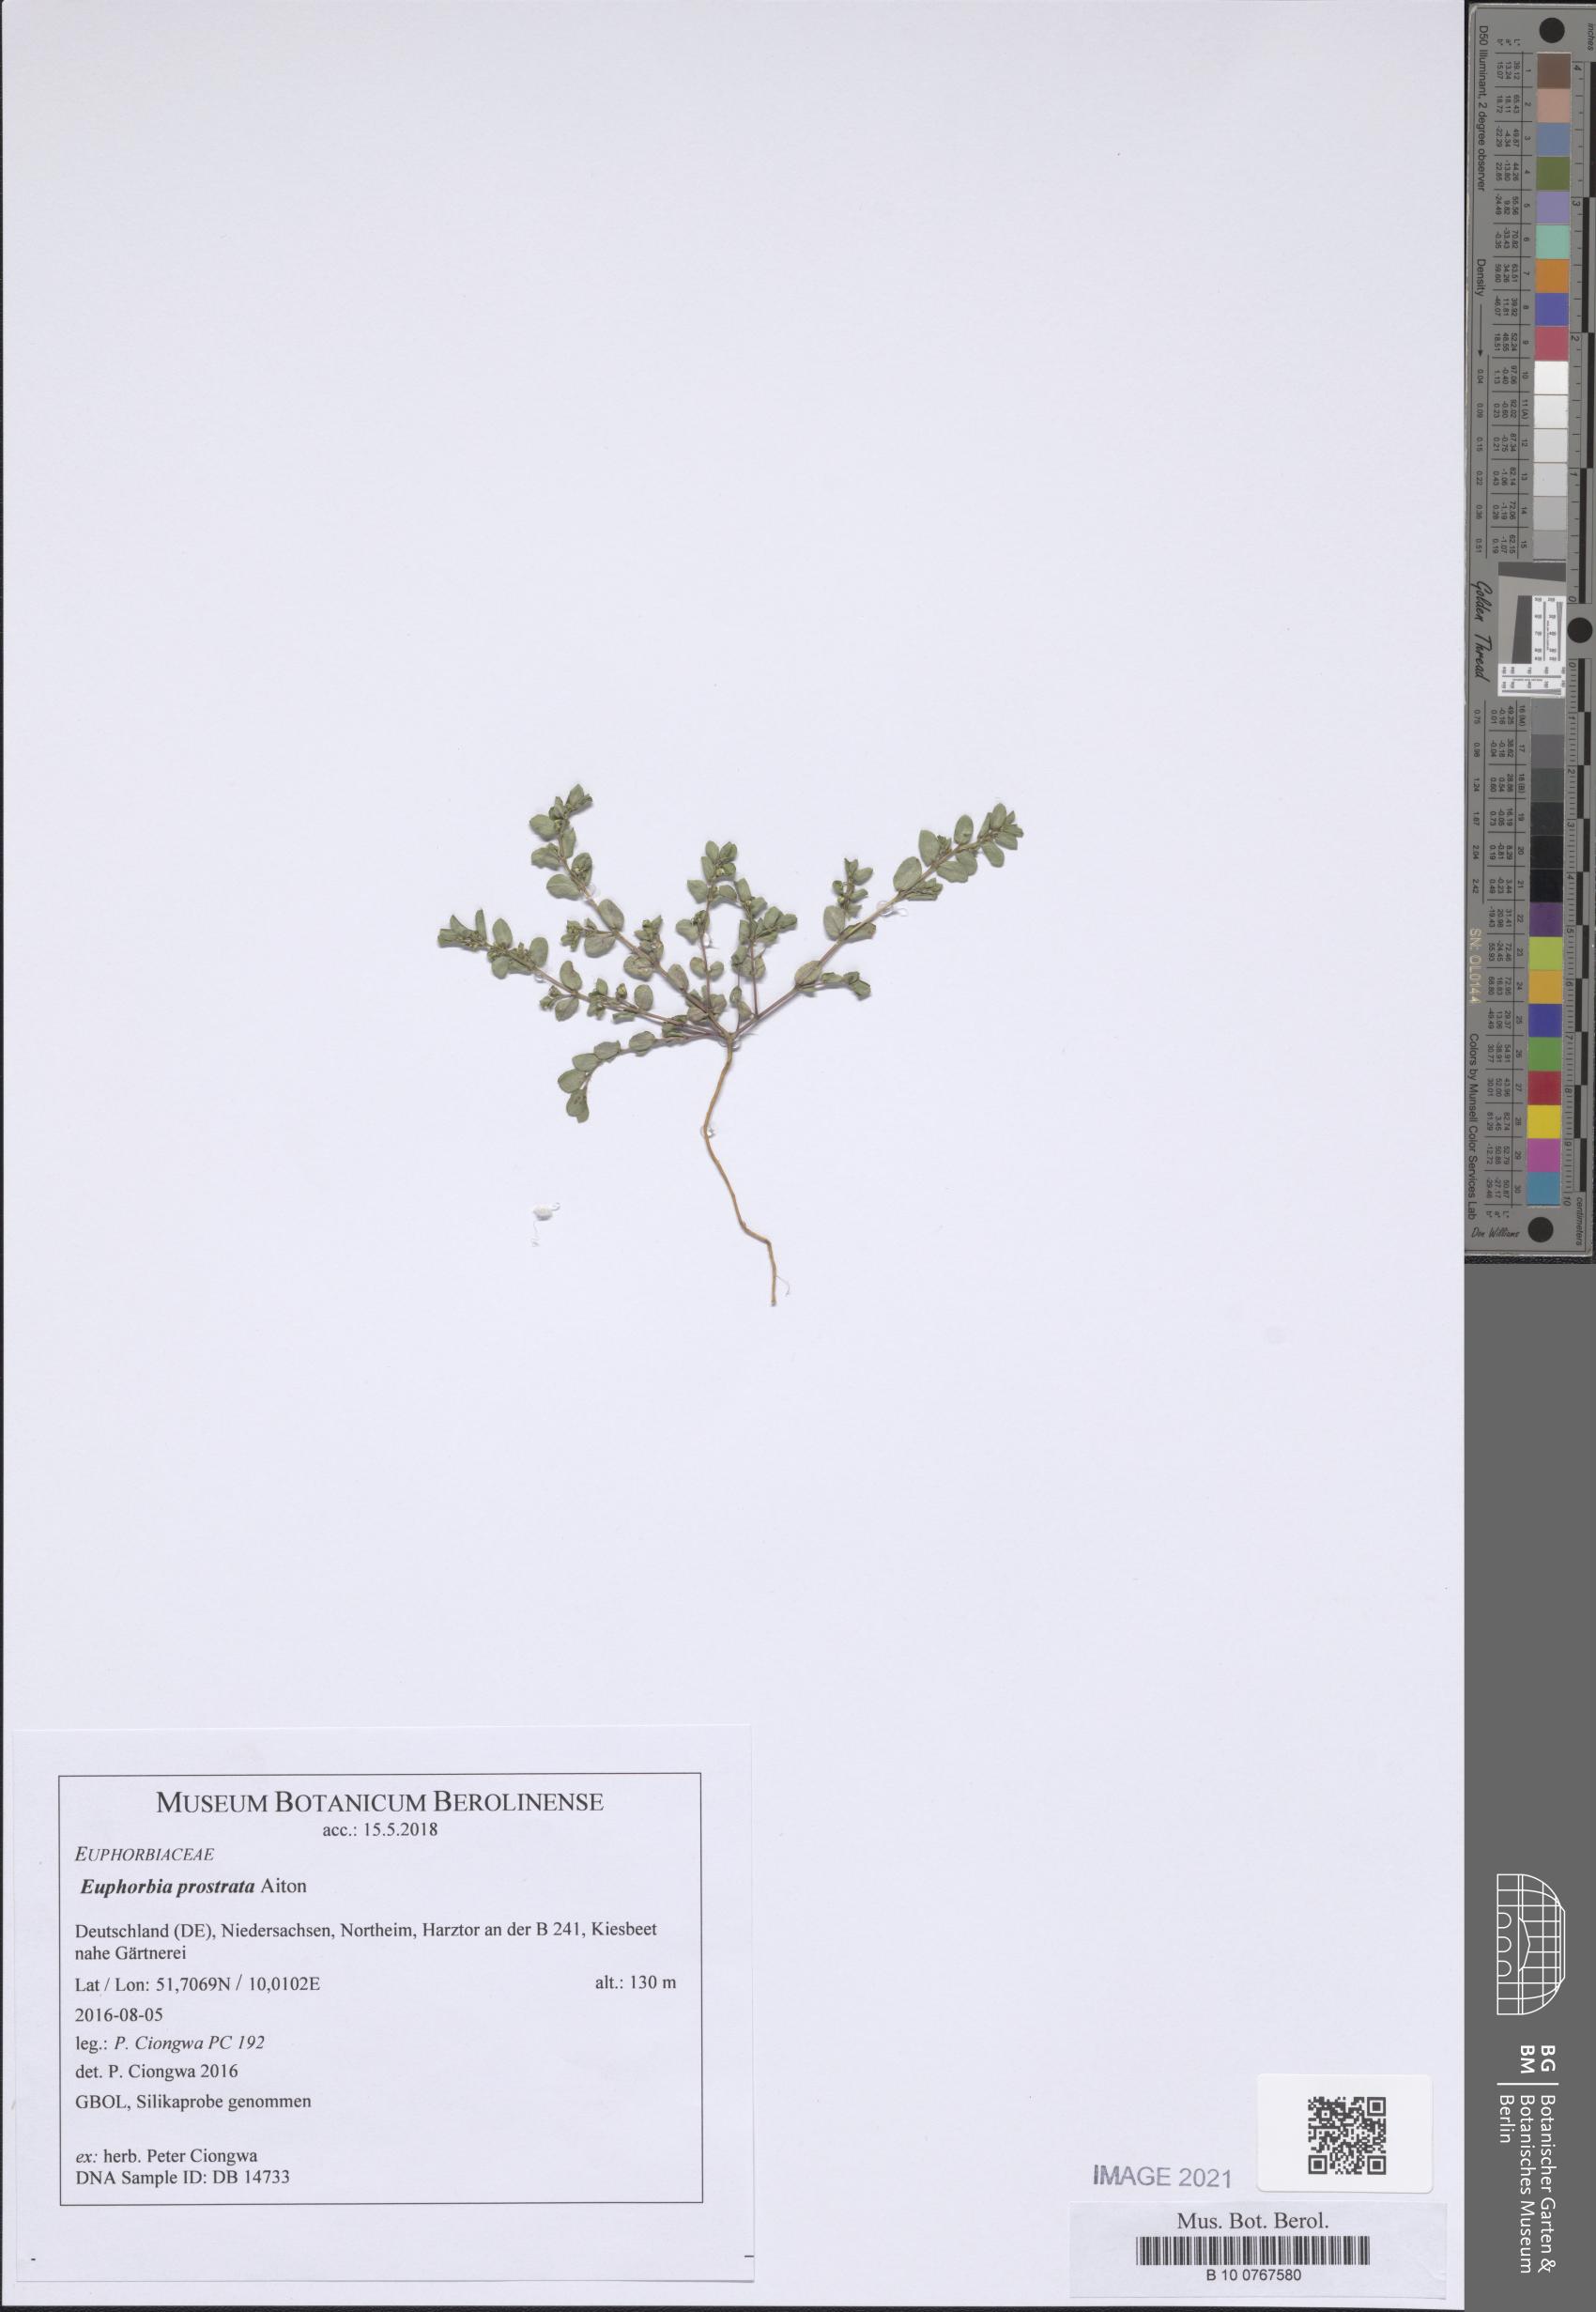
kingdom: Plantae
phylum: Tracheophyta
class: Magnoliopsida
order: Malpighiales
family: Euphorbiaceae
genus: Euphorbia
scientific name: Euphorbia prostrata
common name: Prostrate sandmat
